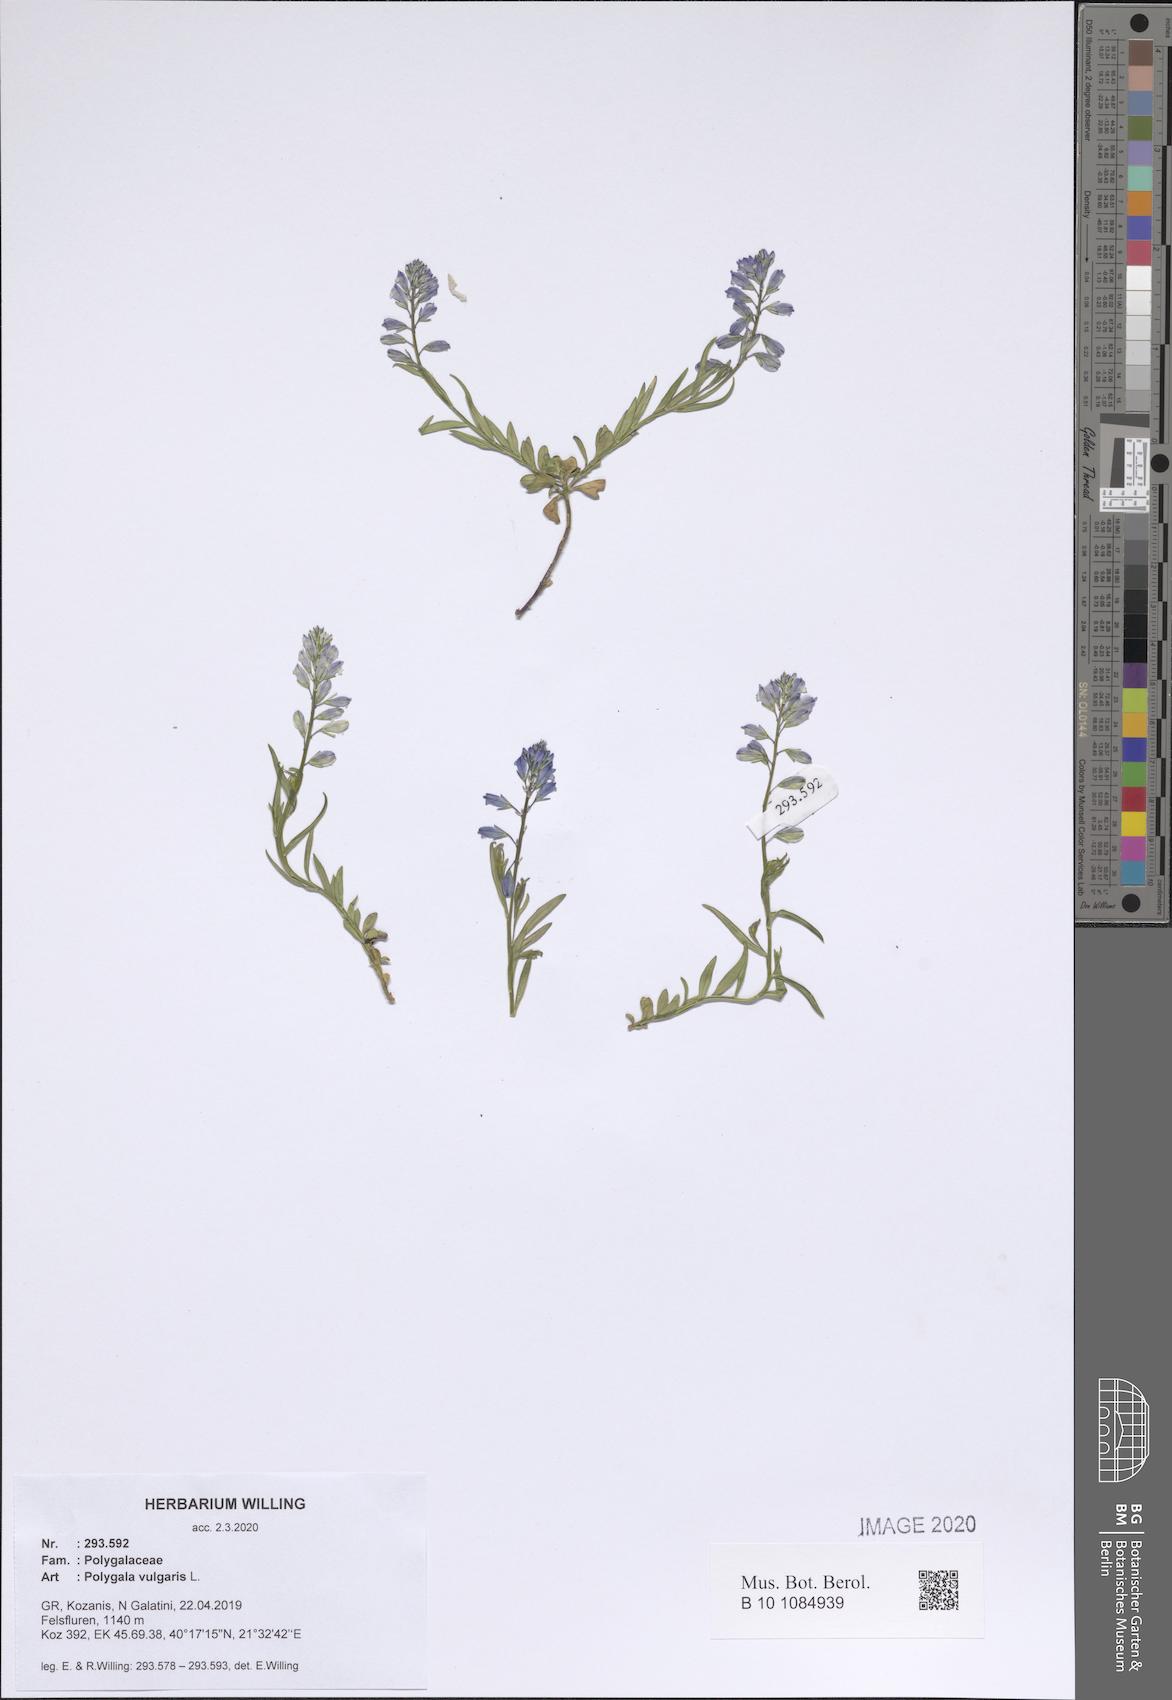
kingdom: Plantae
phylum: Tracheophyta
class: Magnoliopsida
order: Fabales
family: Polygalaceae
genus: Polygala
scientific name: Polygala vulgaris
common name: Common milkwort
